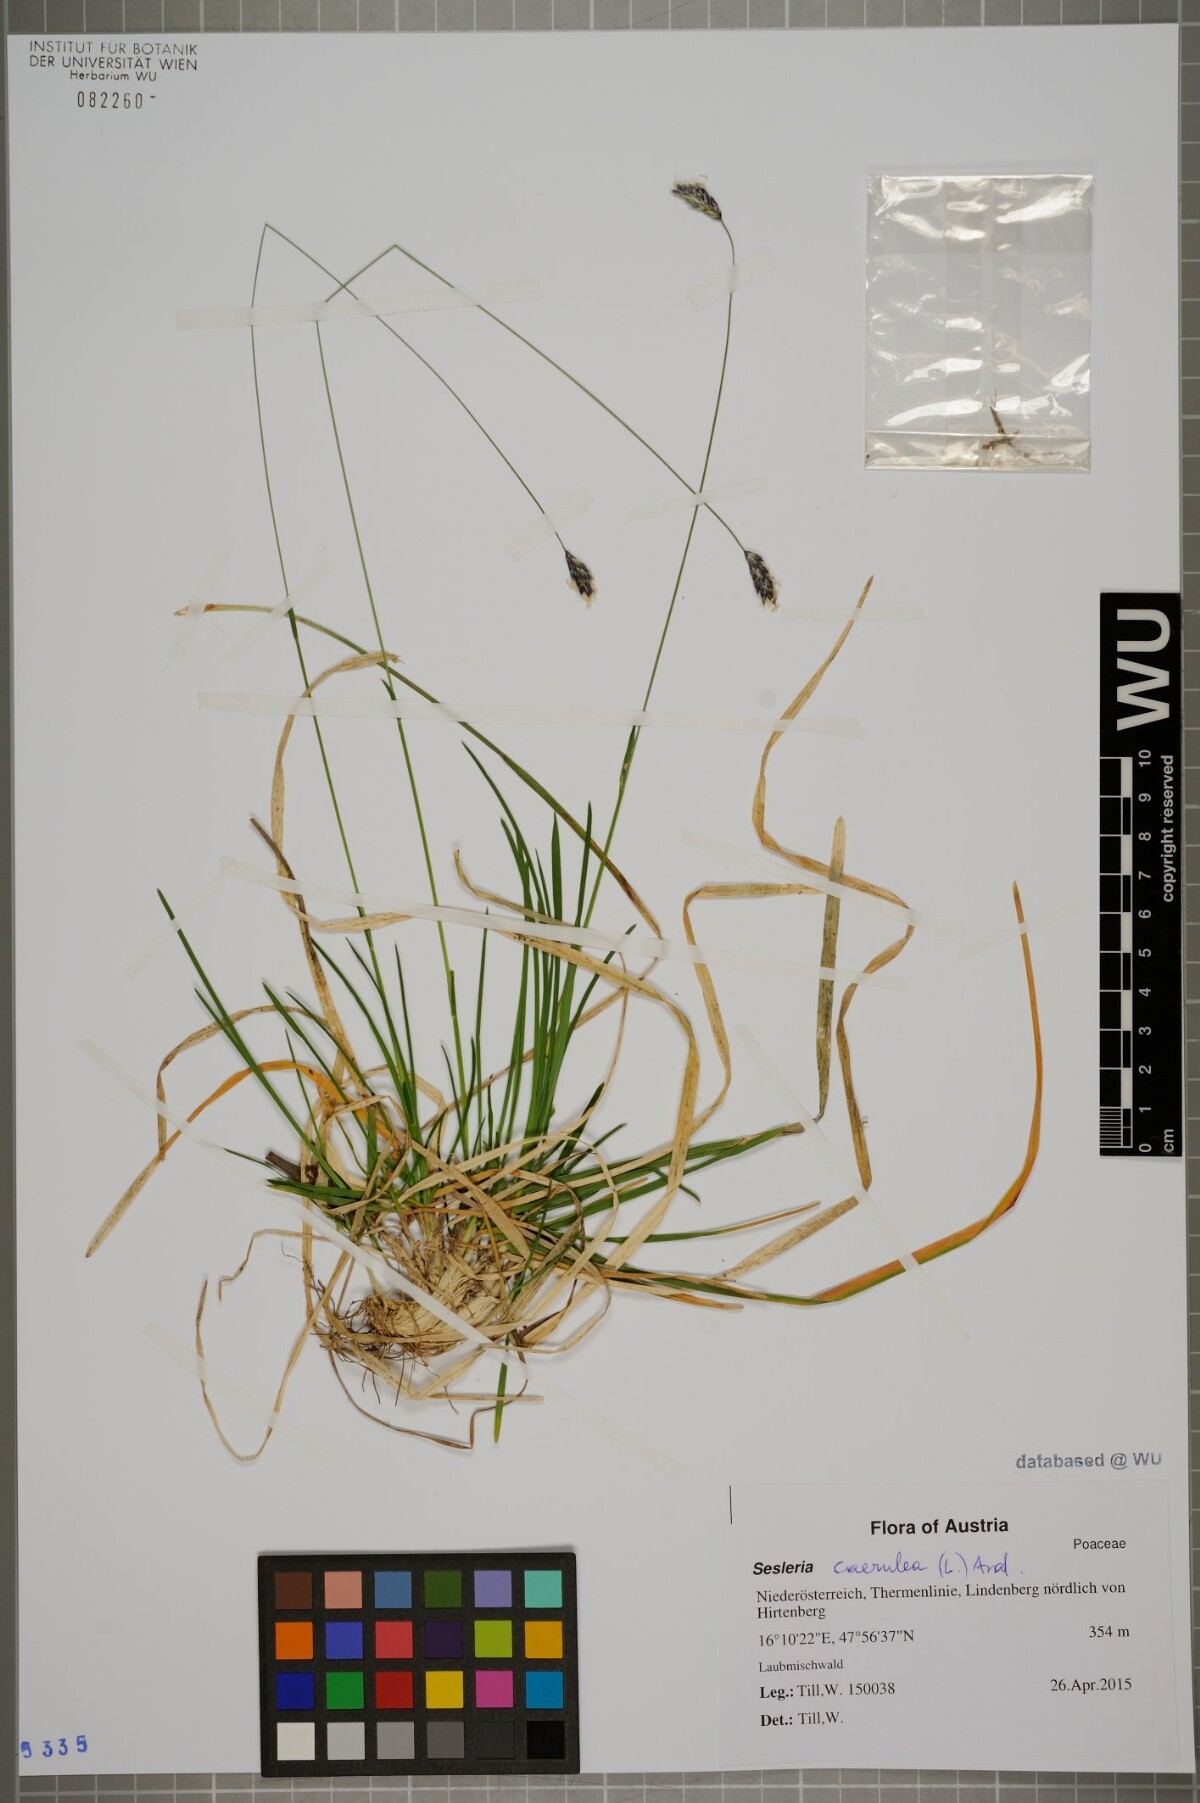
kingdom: Plantae
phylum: Tracheophyta
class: Liliopsida
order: Poales
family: Poaceae
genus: Sesleria
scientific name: Sesleria caerulea
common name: Blue moor-grass
